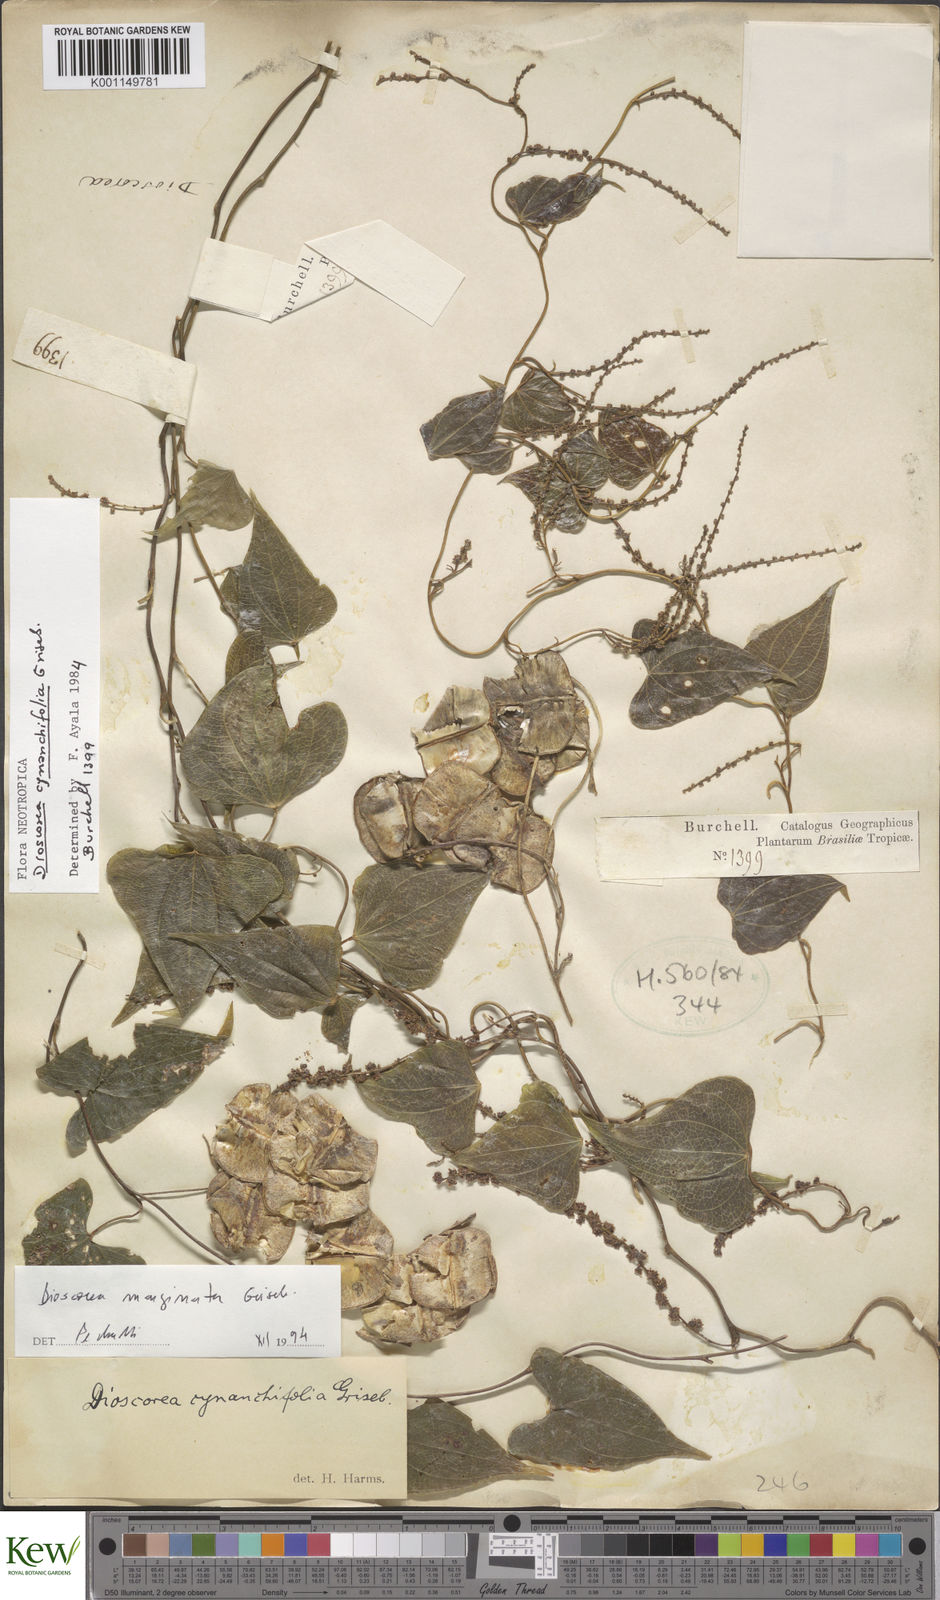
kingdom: Plantae
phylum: Tracheophyta
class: Liliopsida
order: Dioscoreales
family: Dioscoreaceae
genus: Dioscorea
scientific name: Dioscorea marginata
